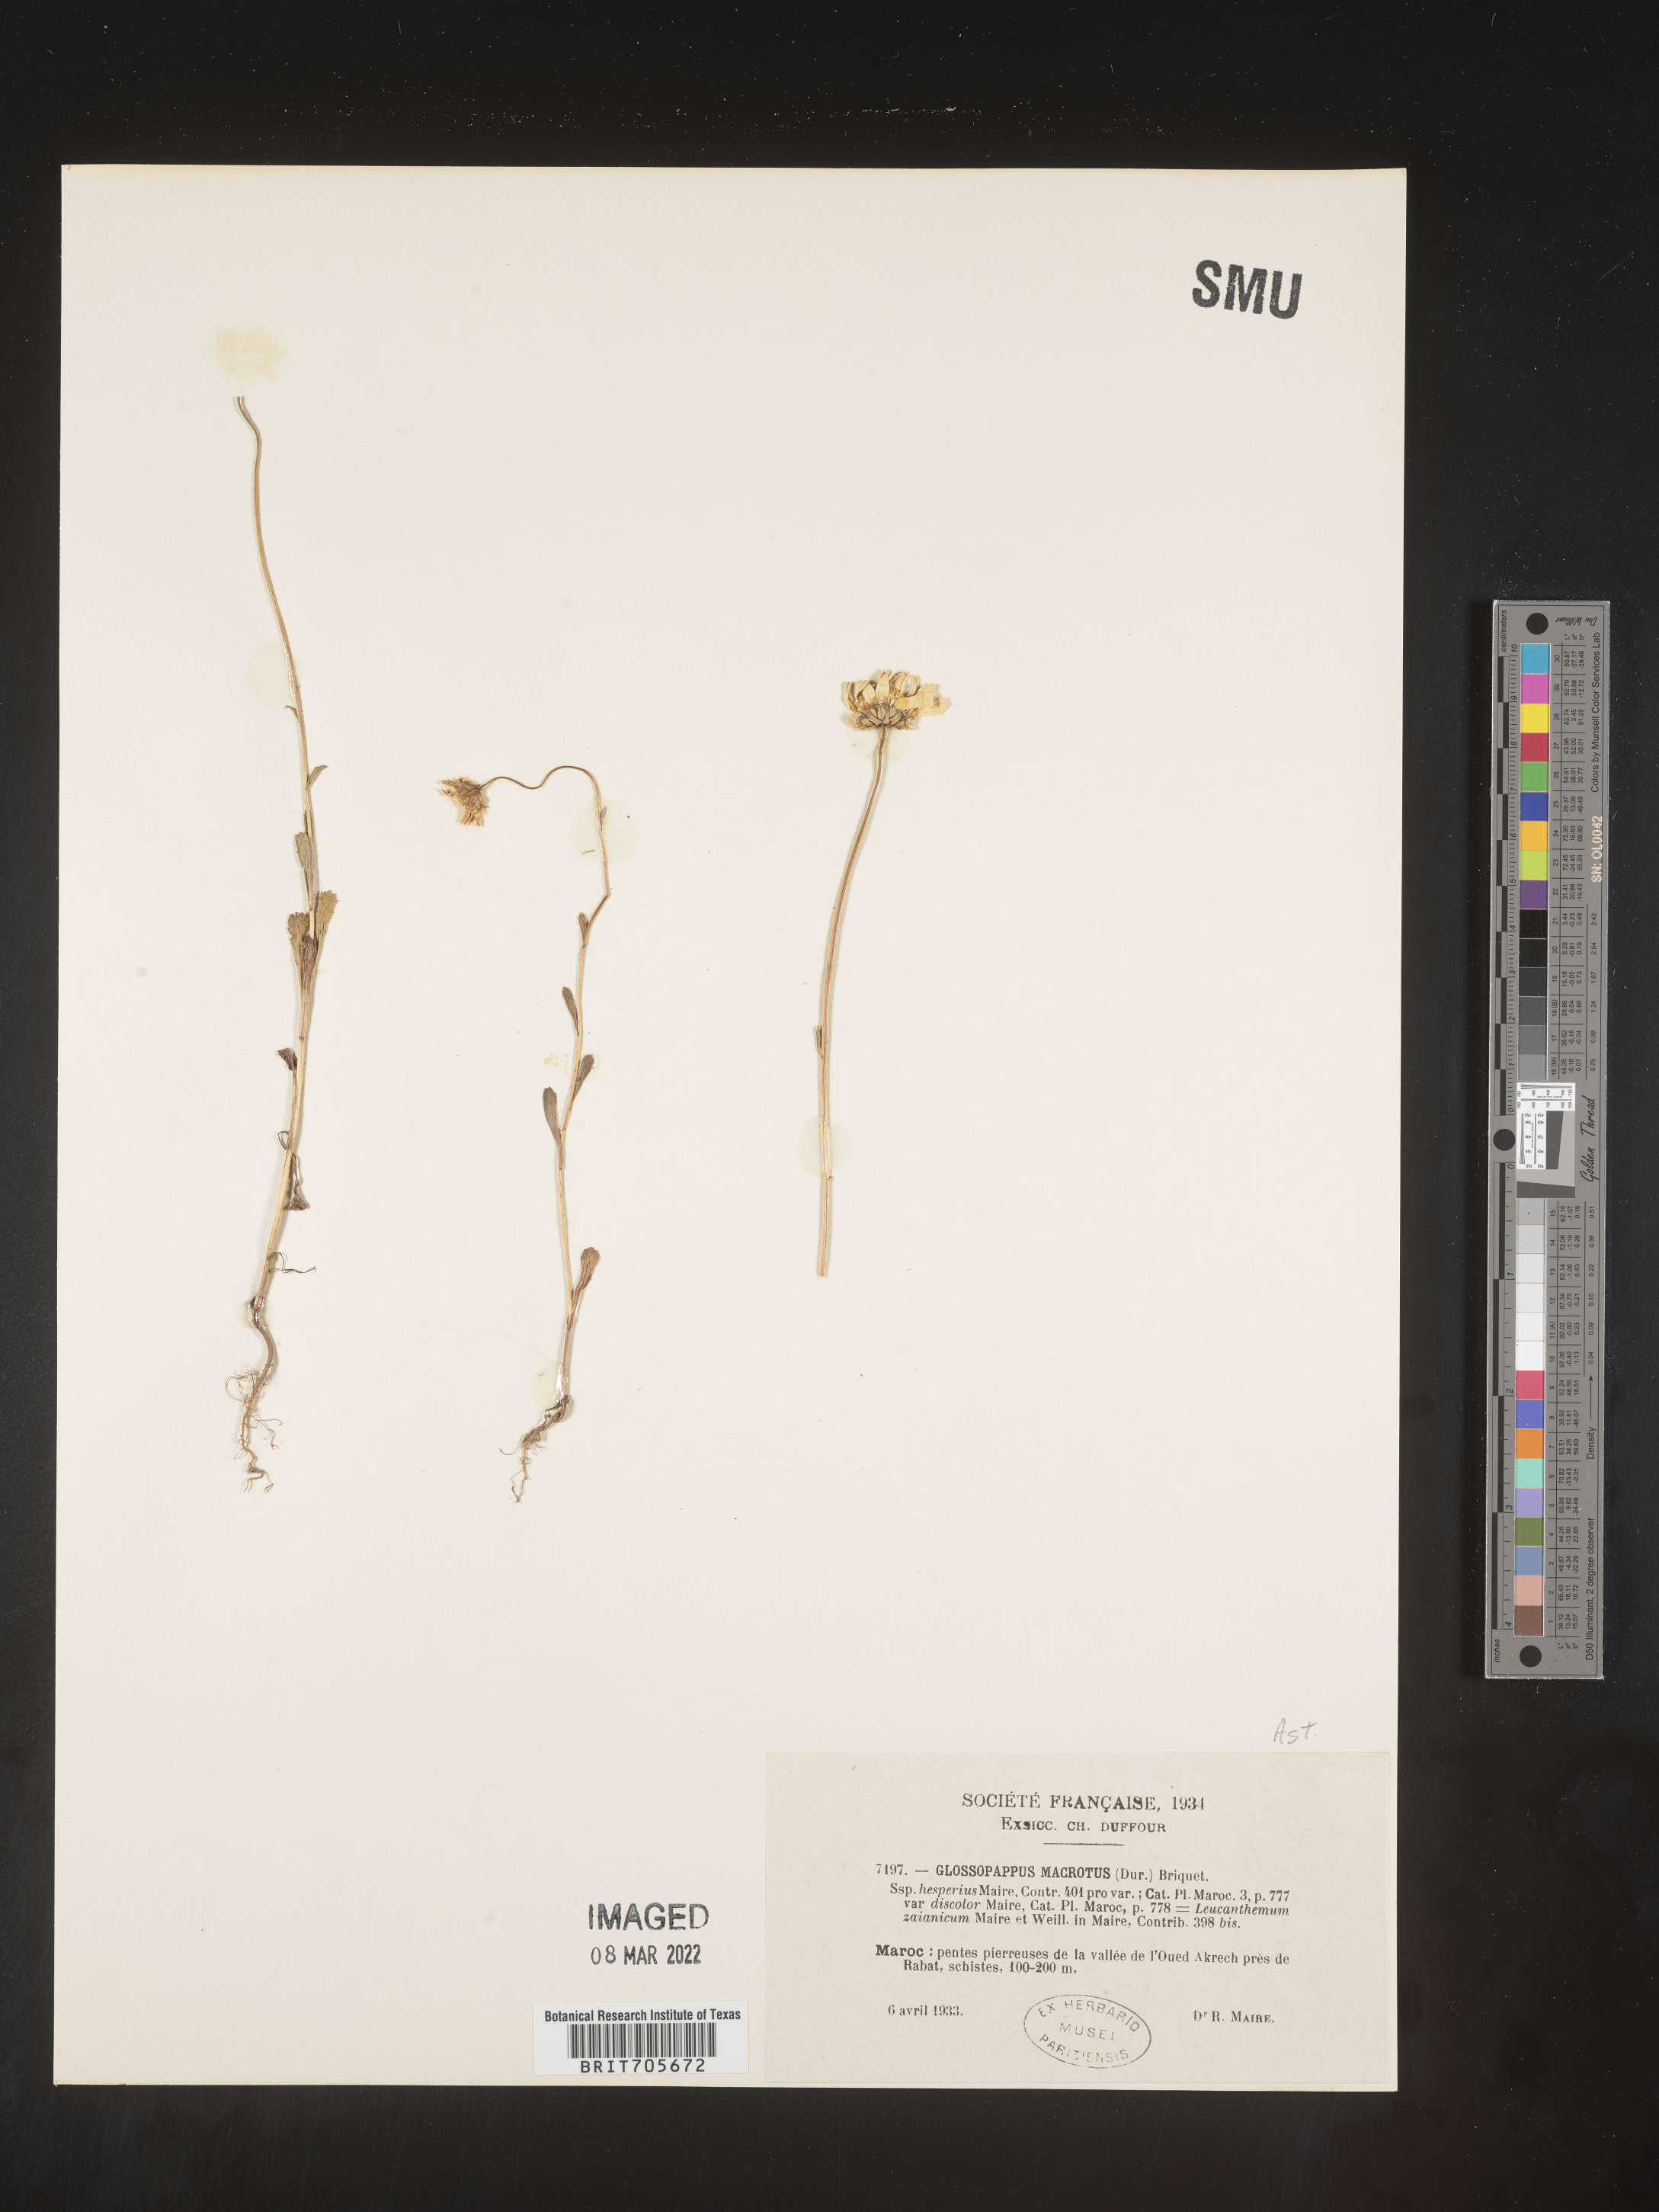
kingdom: Plantae
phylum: Tracheophyta
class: Magnoliopsida
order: Asterales
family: Asteraceae
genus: Glossopappus
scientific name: Glossopappus
